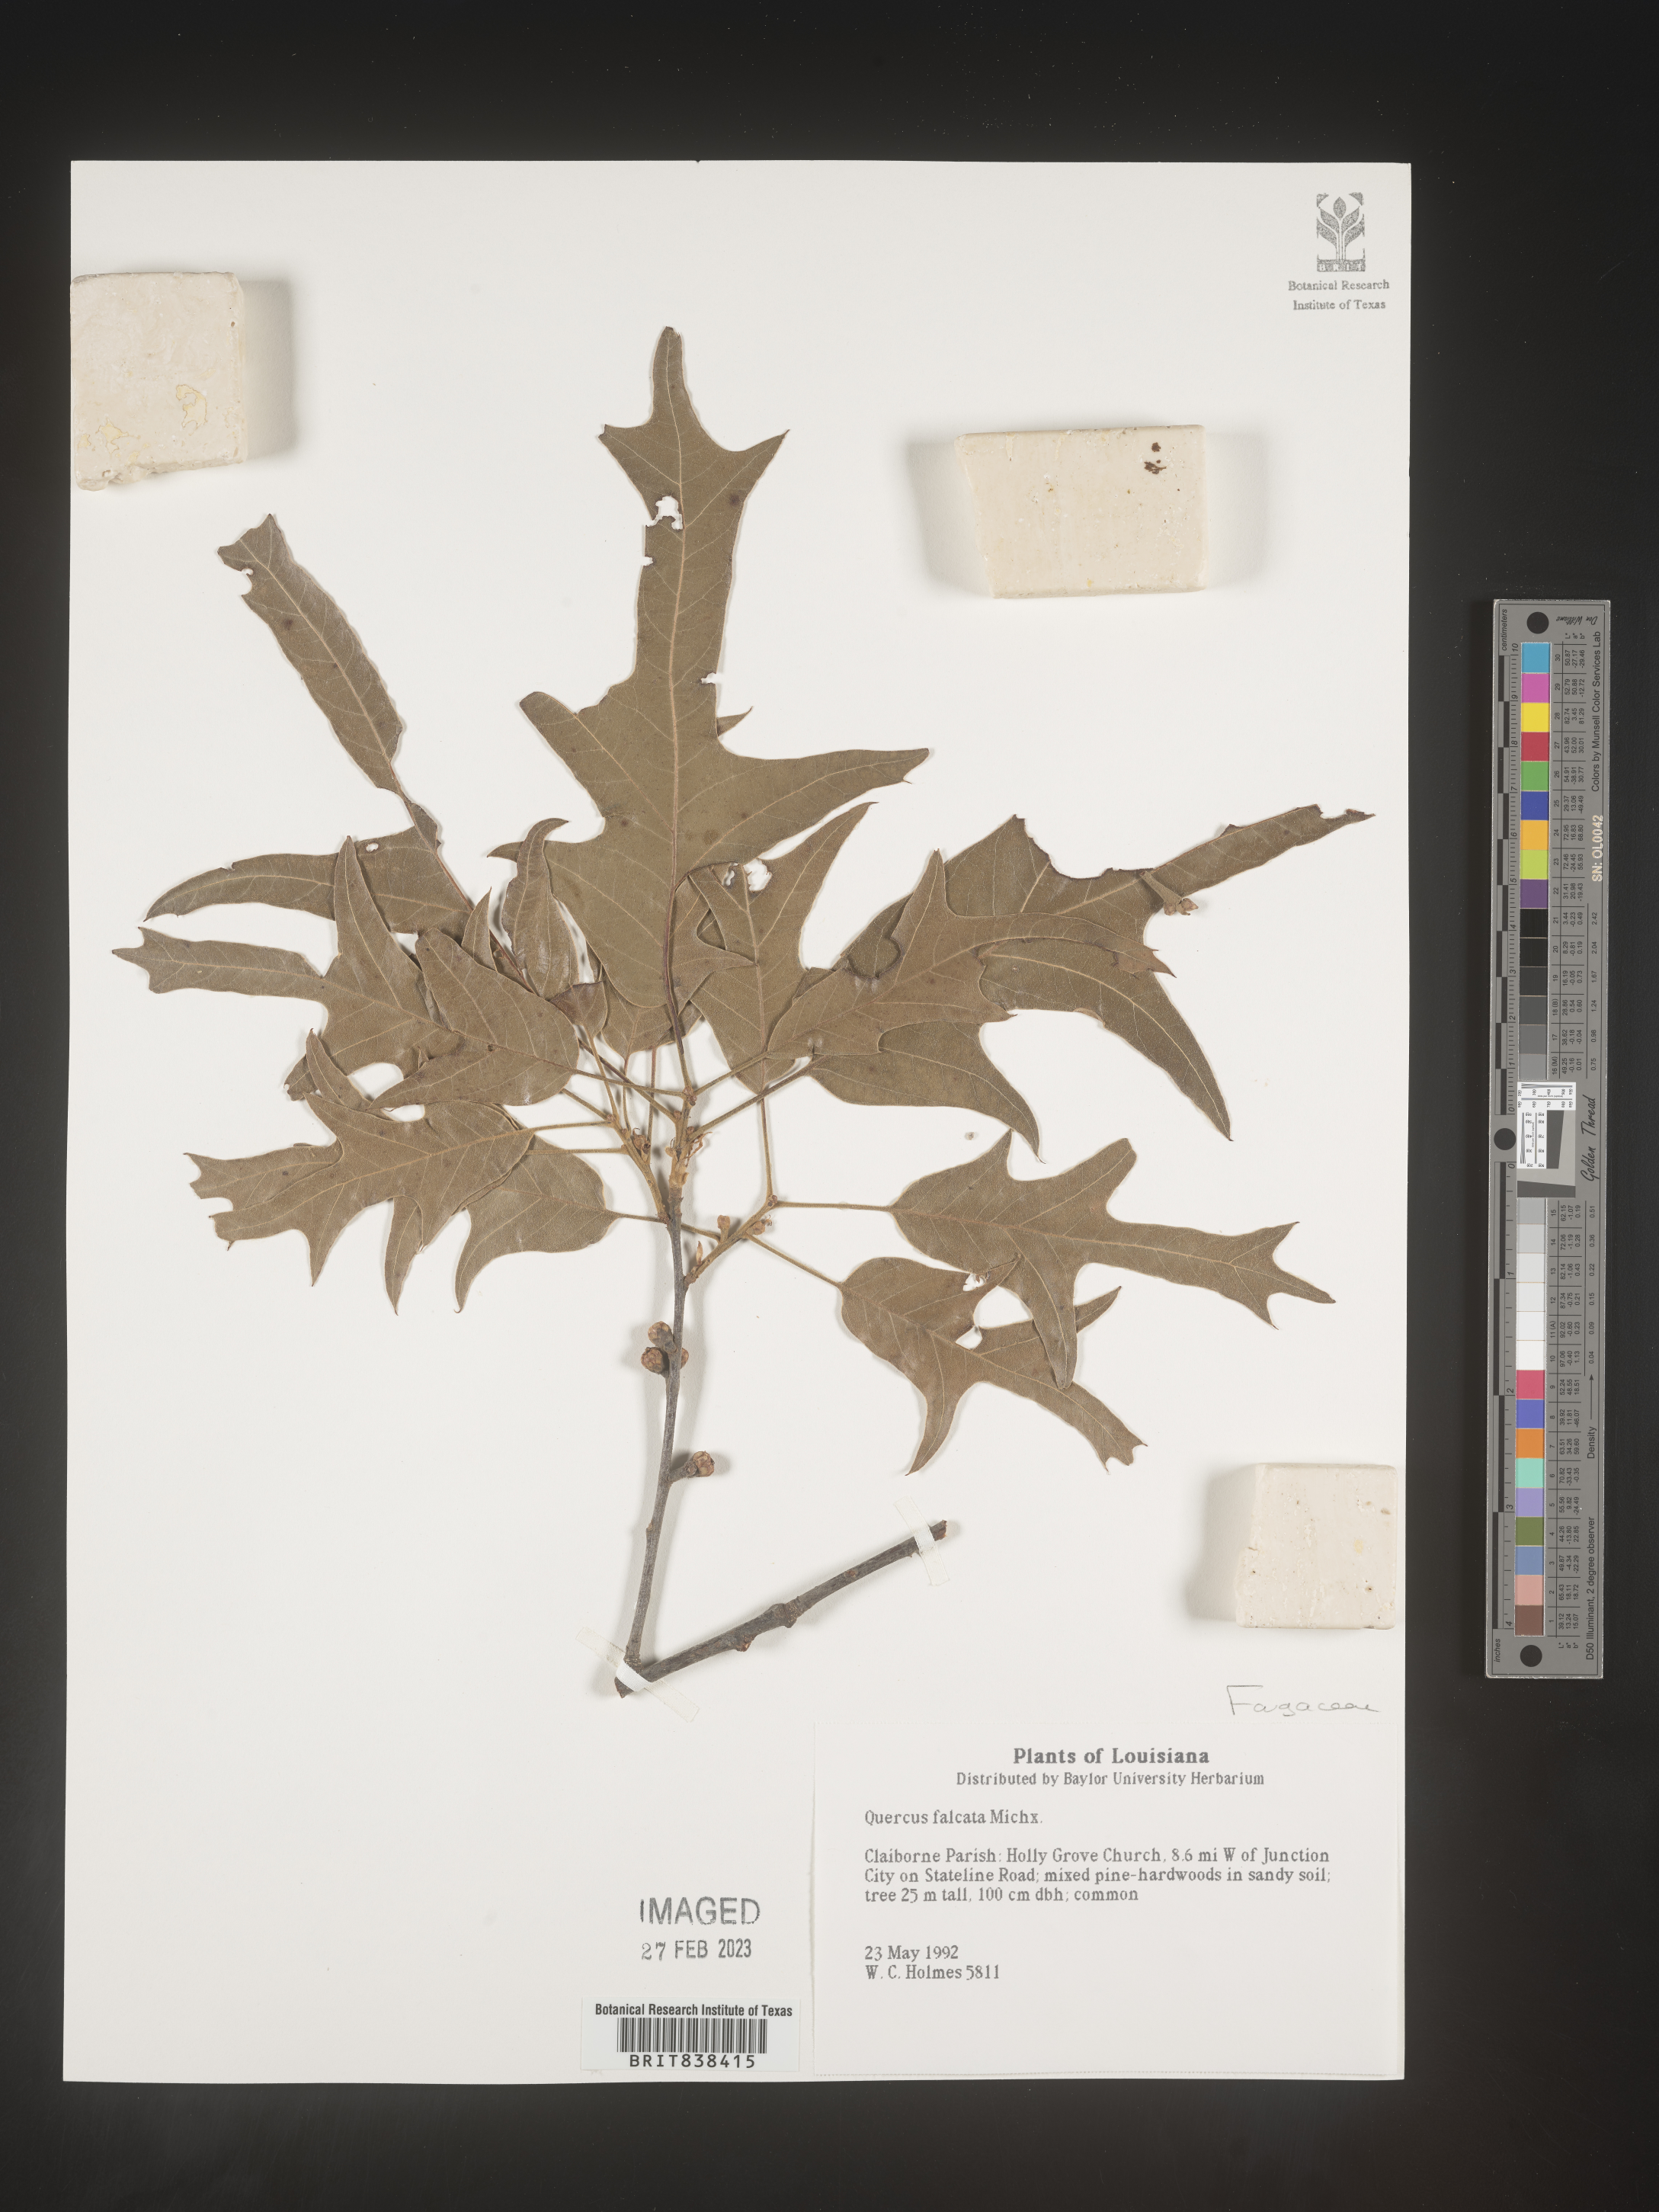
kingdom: Plantae
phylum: Tracheophyta
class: Magnoliopsida
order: Fagales
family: Fagaceae
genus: Quercus
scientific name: Quercus falcata
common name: Southern red oak
